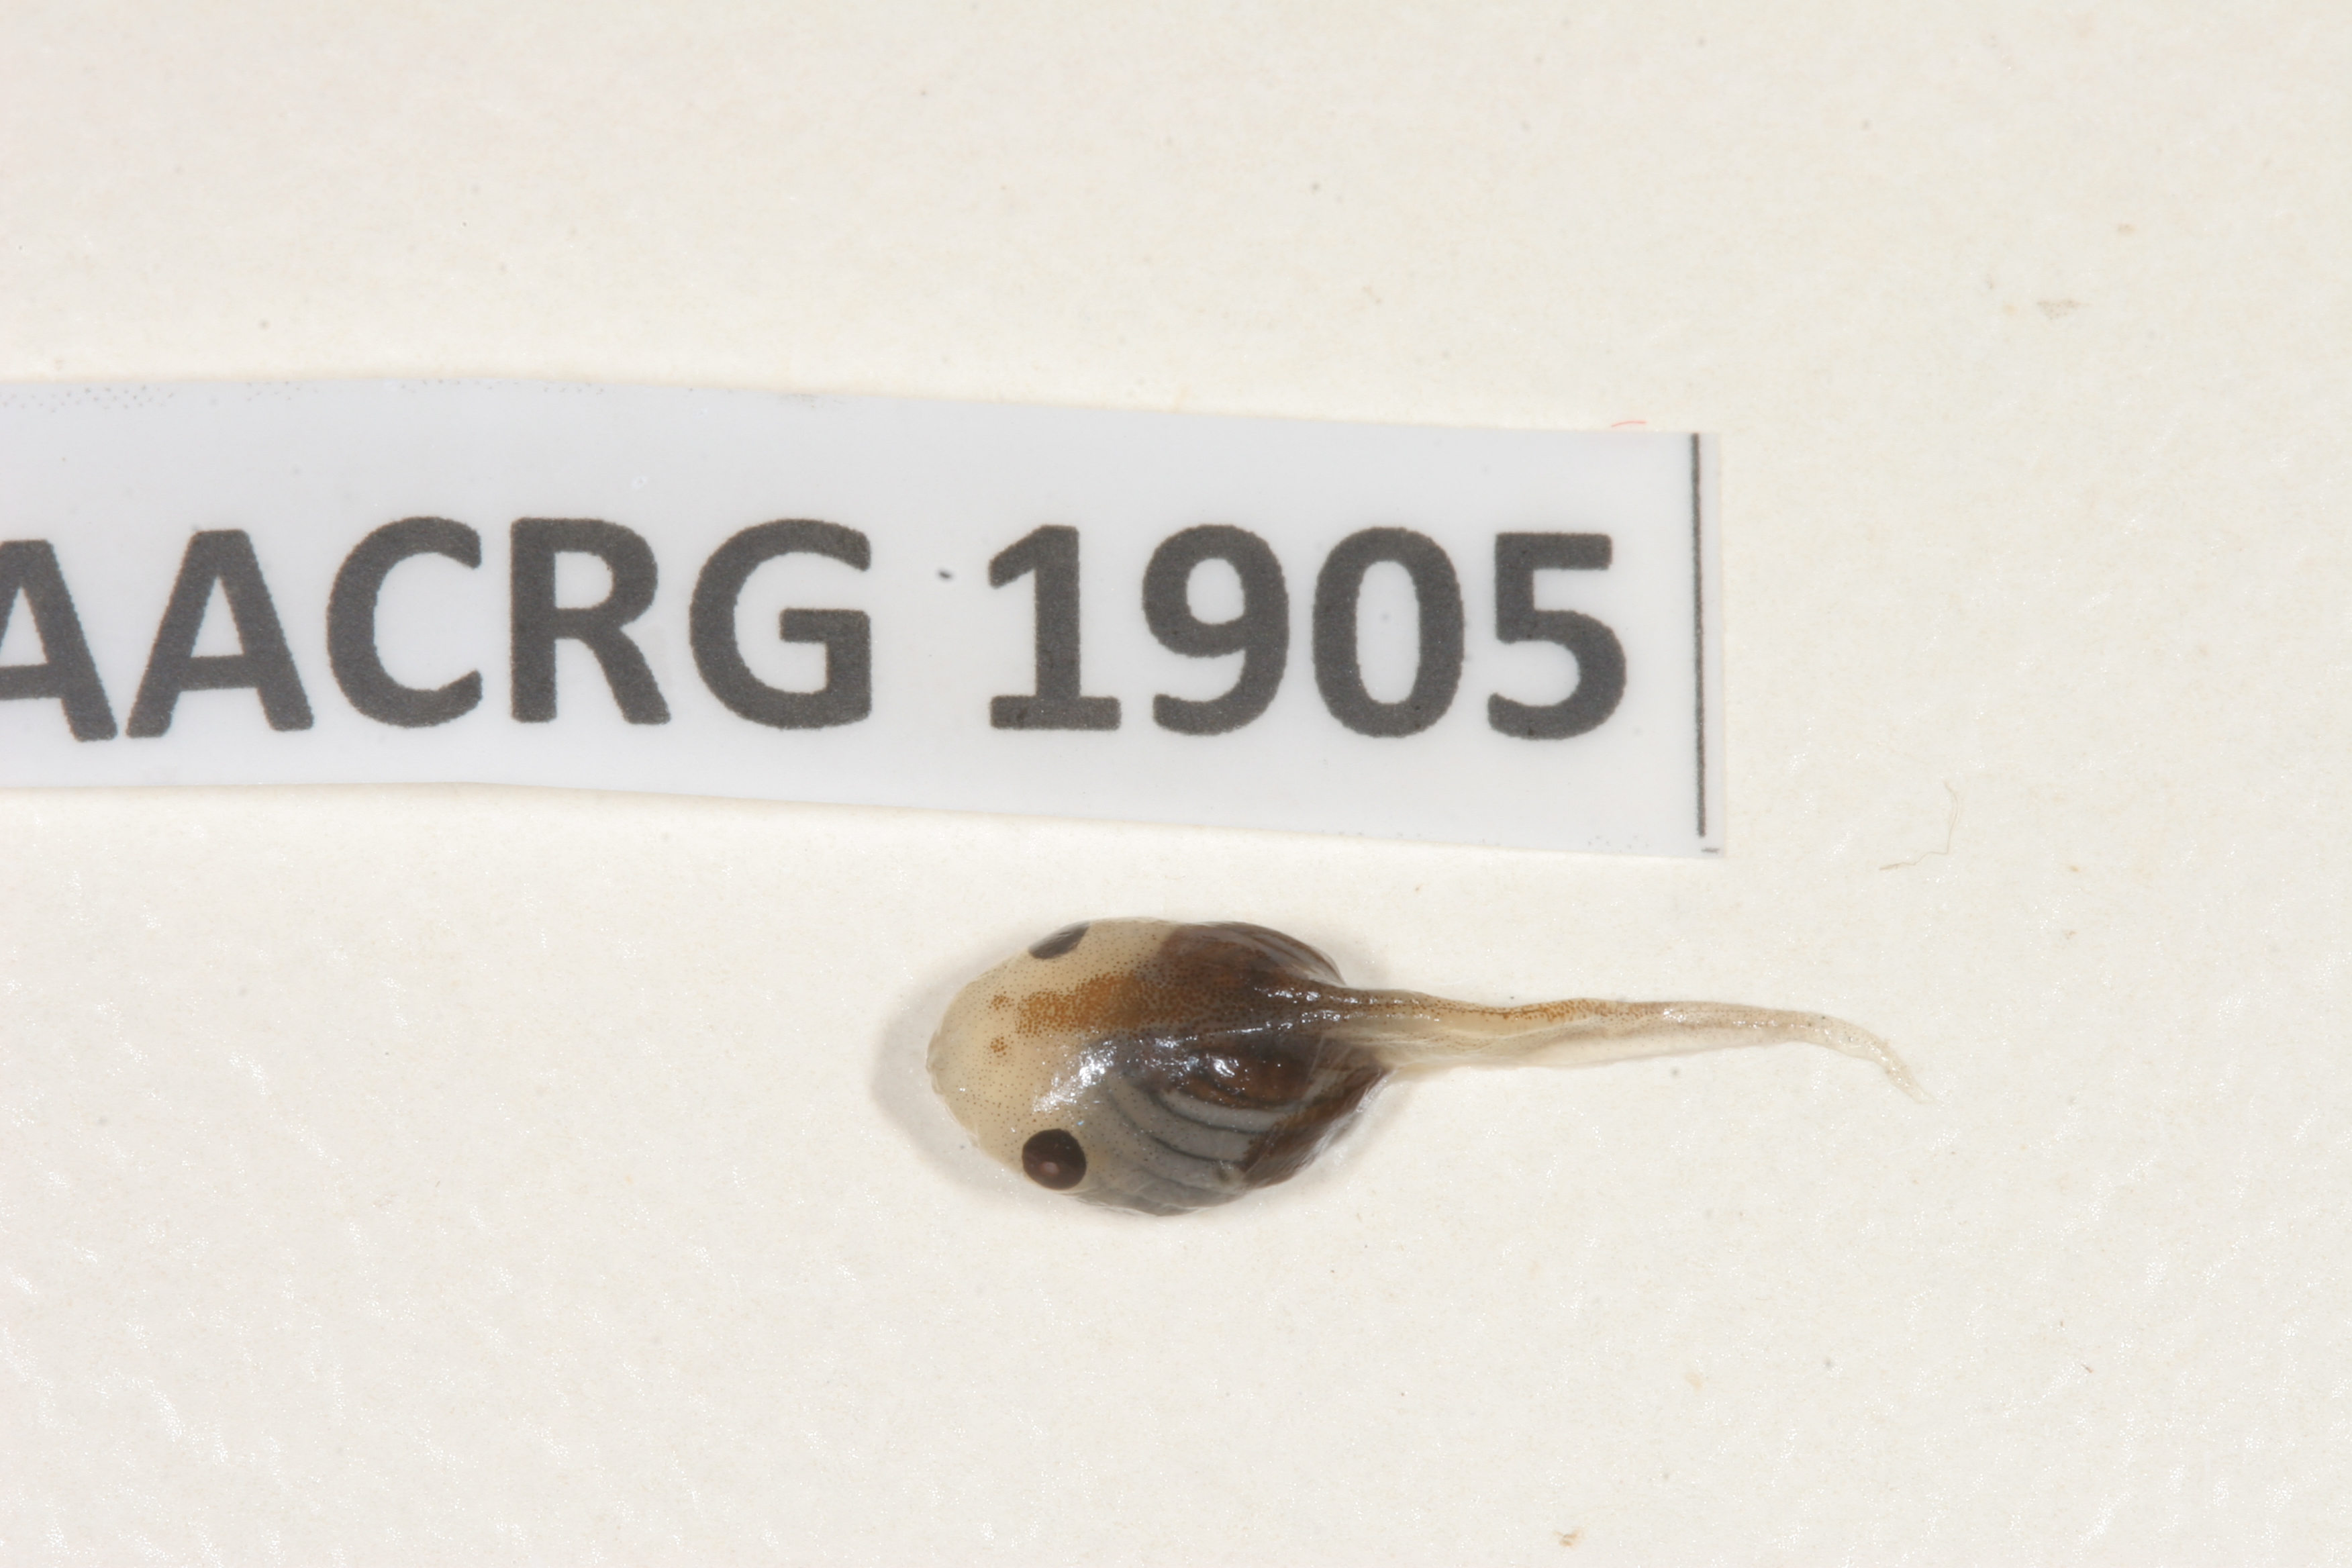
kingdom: Animalia
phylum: Chordata
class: Amphibia
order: Anura
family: Microhylidae
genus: Phrynomantis
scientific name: Phrynomantis bifasciatus
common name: Banded rubber frog
